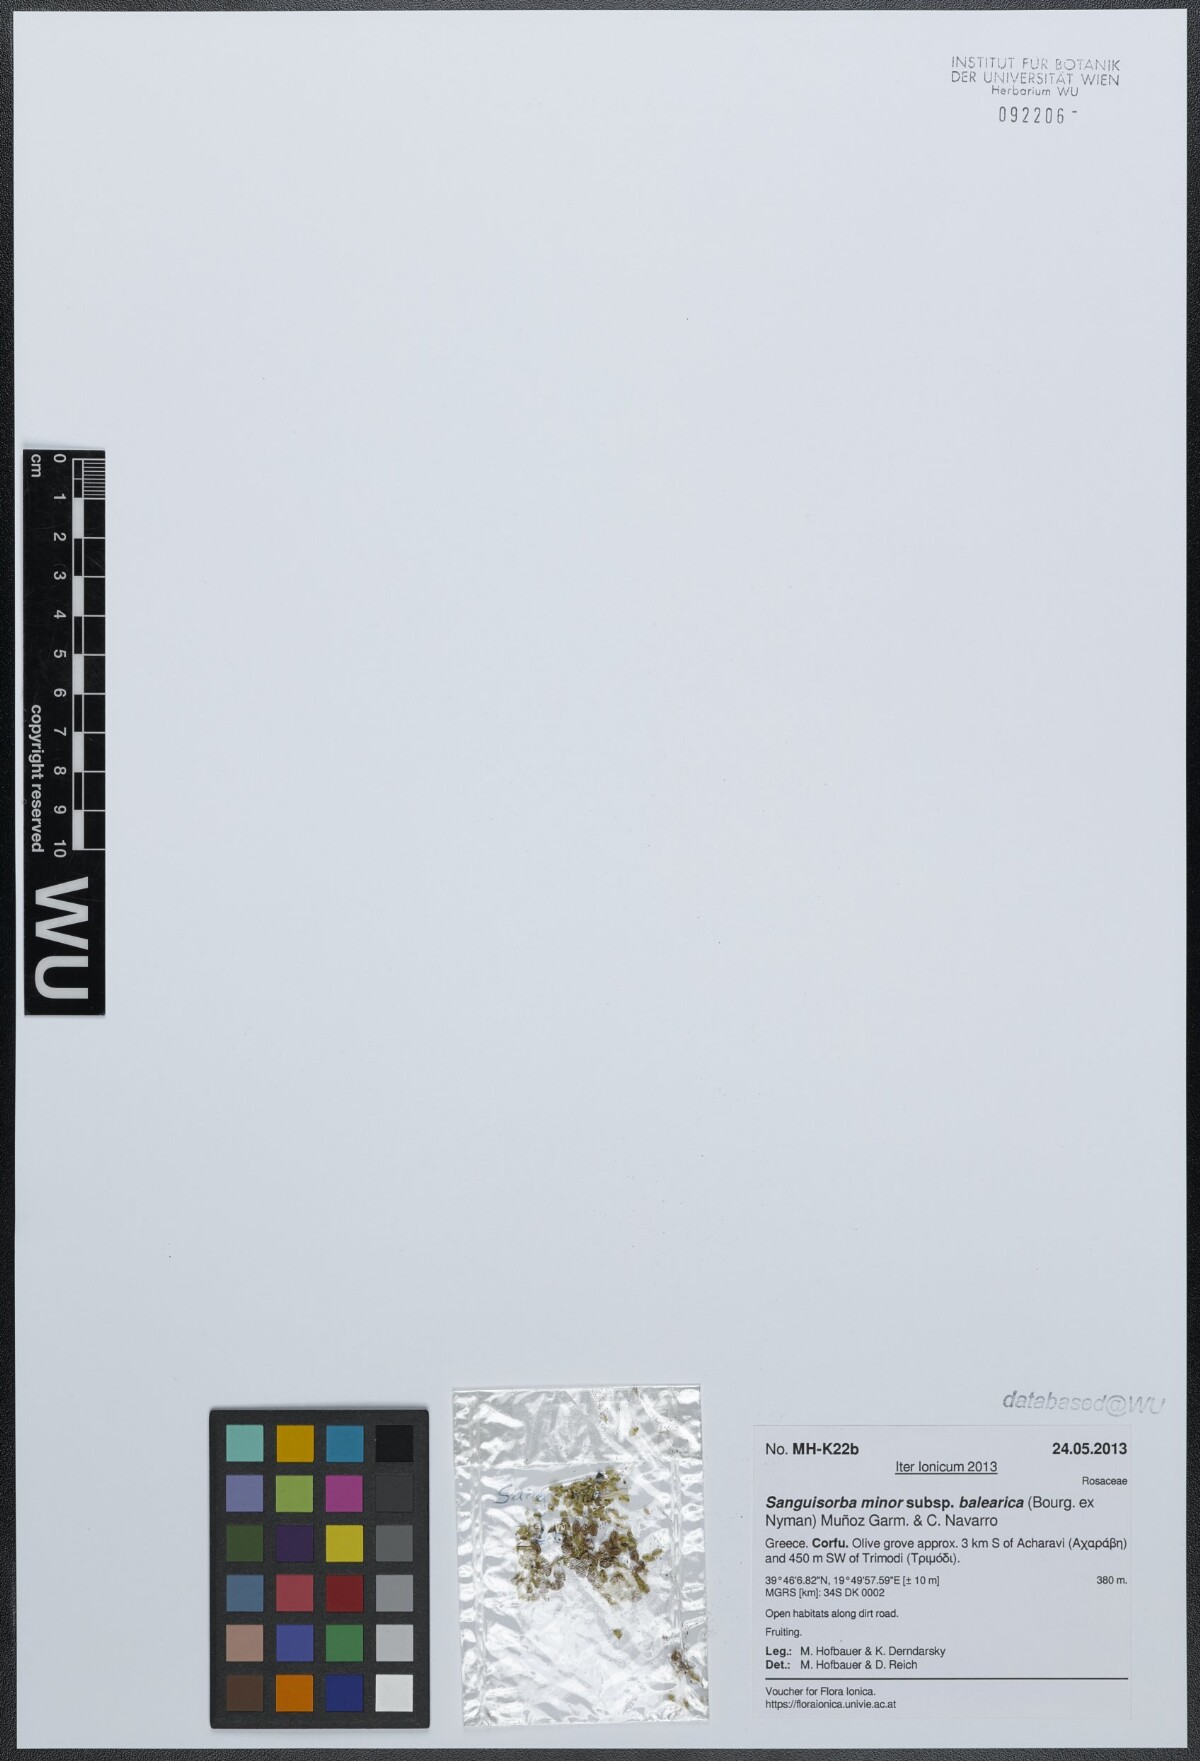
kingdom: Plantae
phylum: Tracheophyta
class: Magnoliopsida
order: Rosales
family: Rosaceae
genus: Poterium
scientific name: Poterium sanguisorba
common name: Salad burnet
